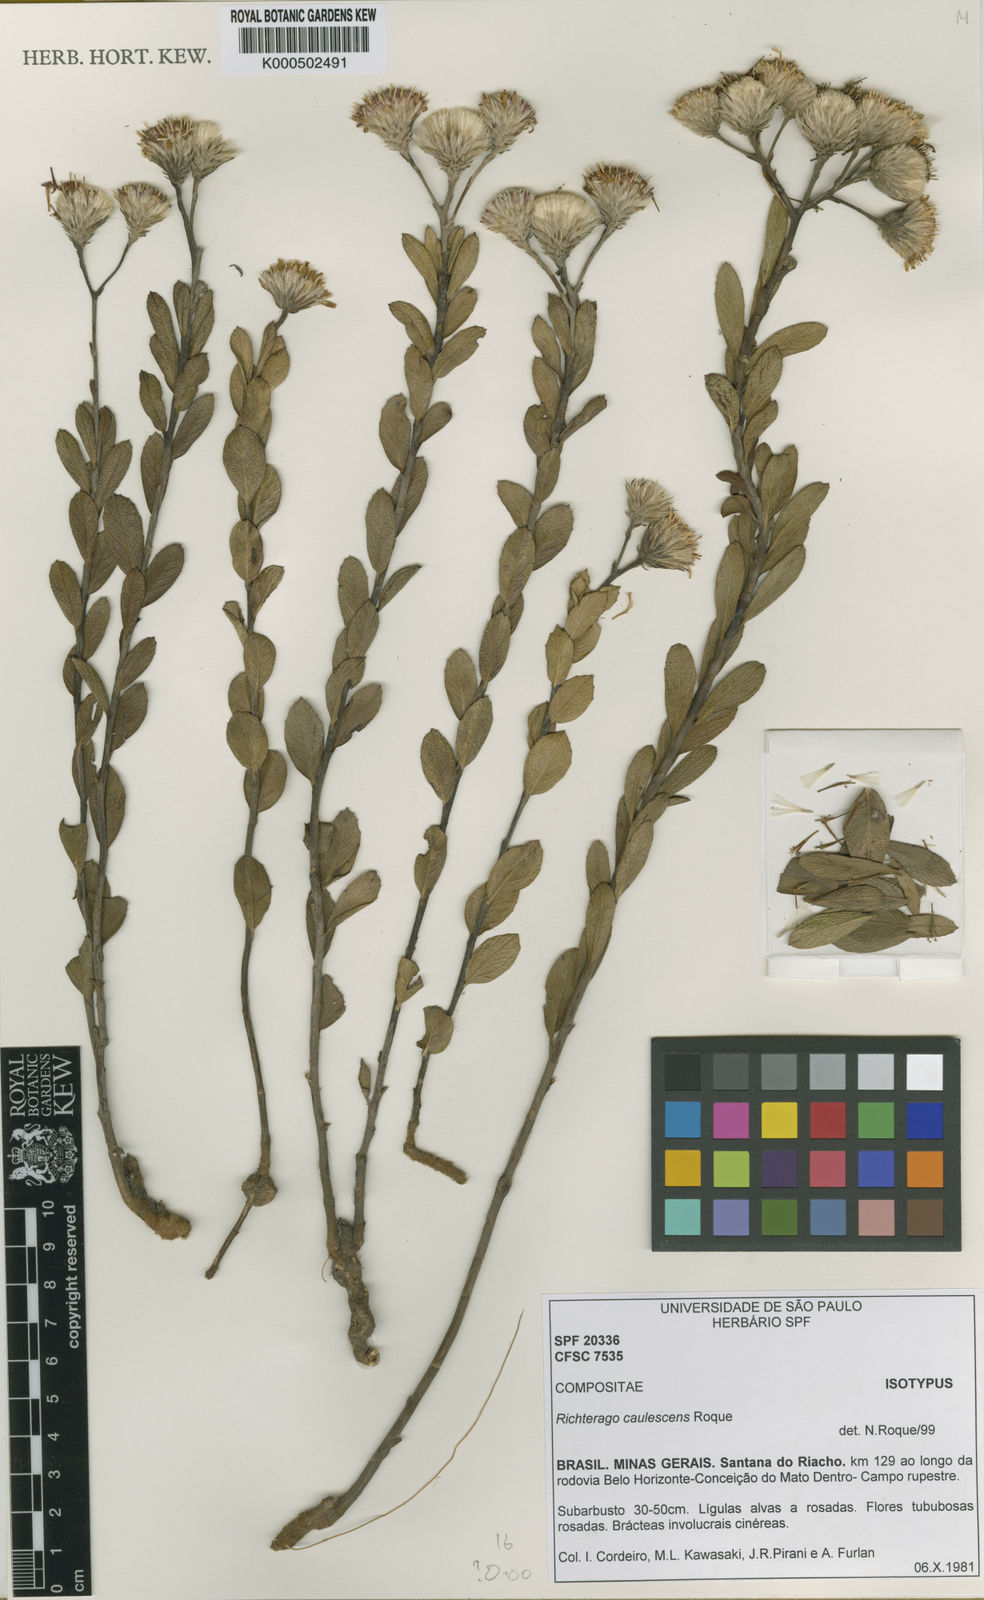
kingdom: Plantae
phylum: Tracheophyta
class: Magnoliopsida
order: Asterales
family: Asteraceae
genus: Richterago
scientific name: Richterago caulescens
